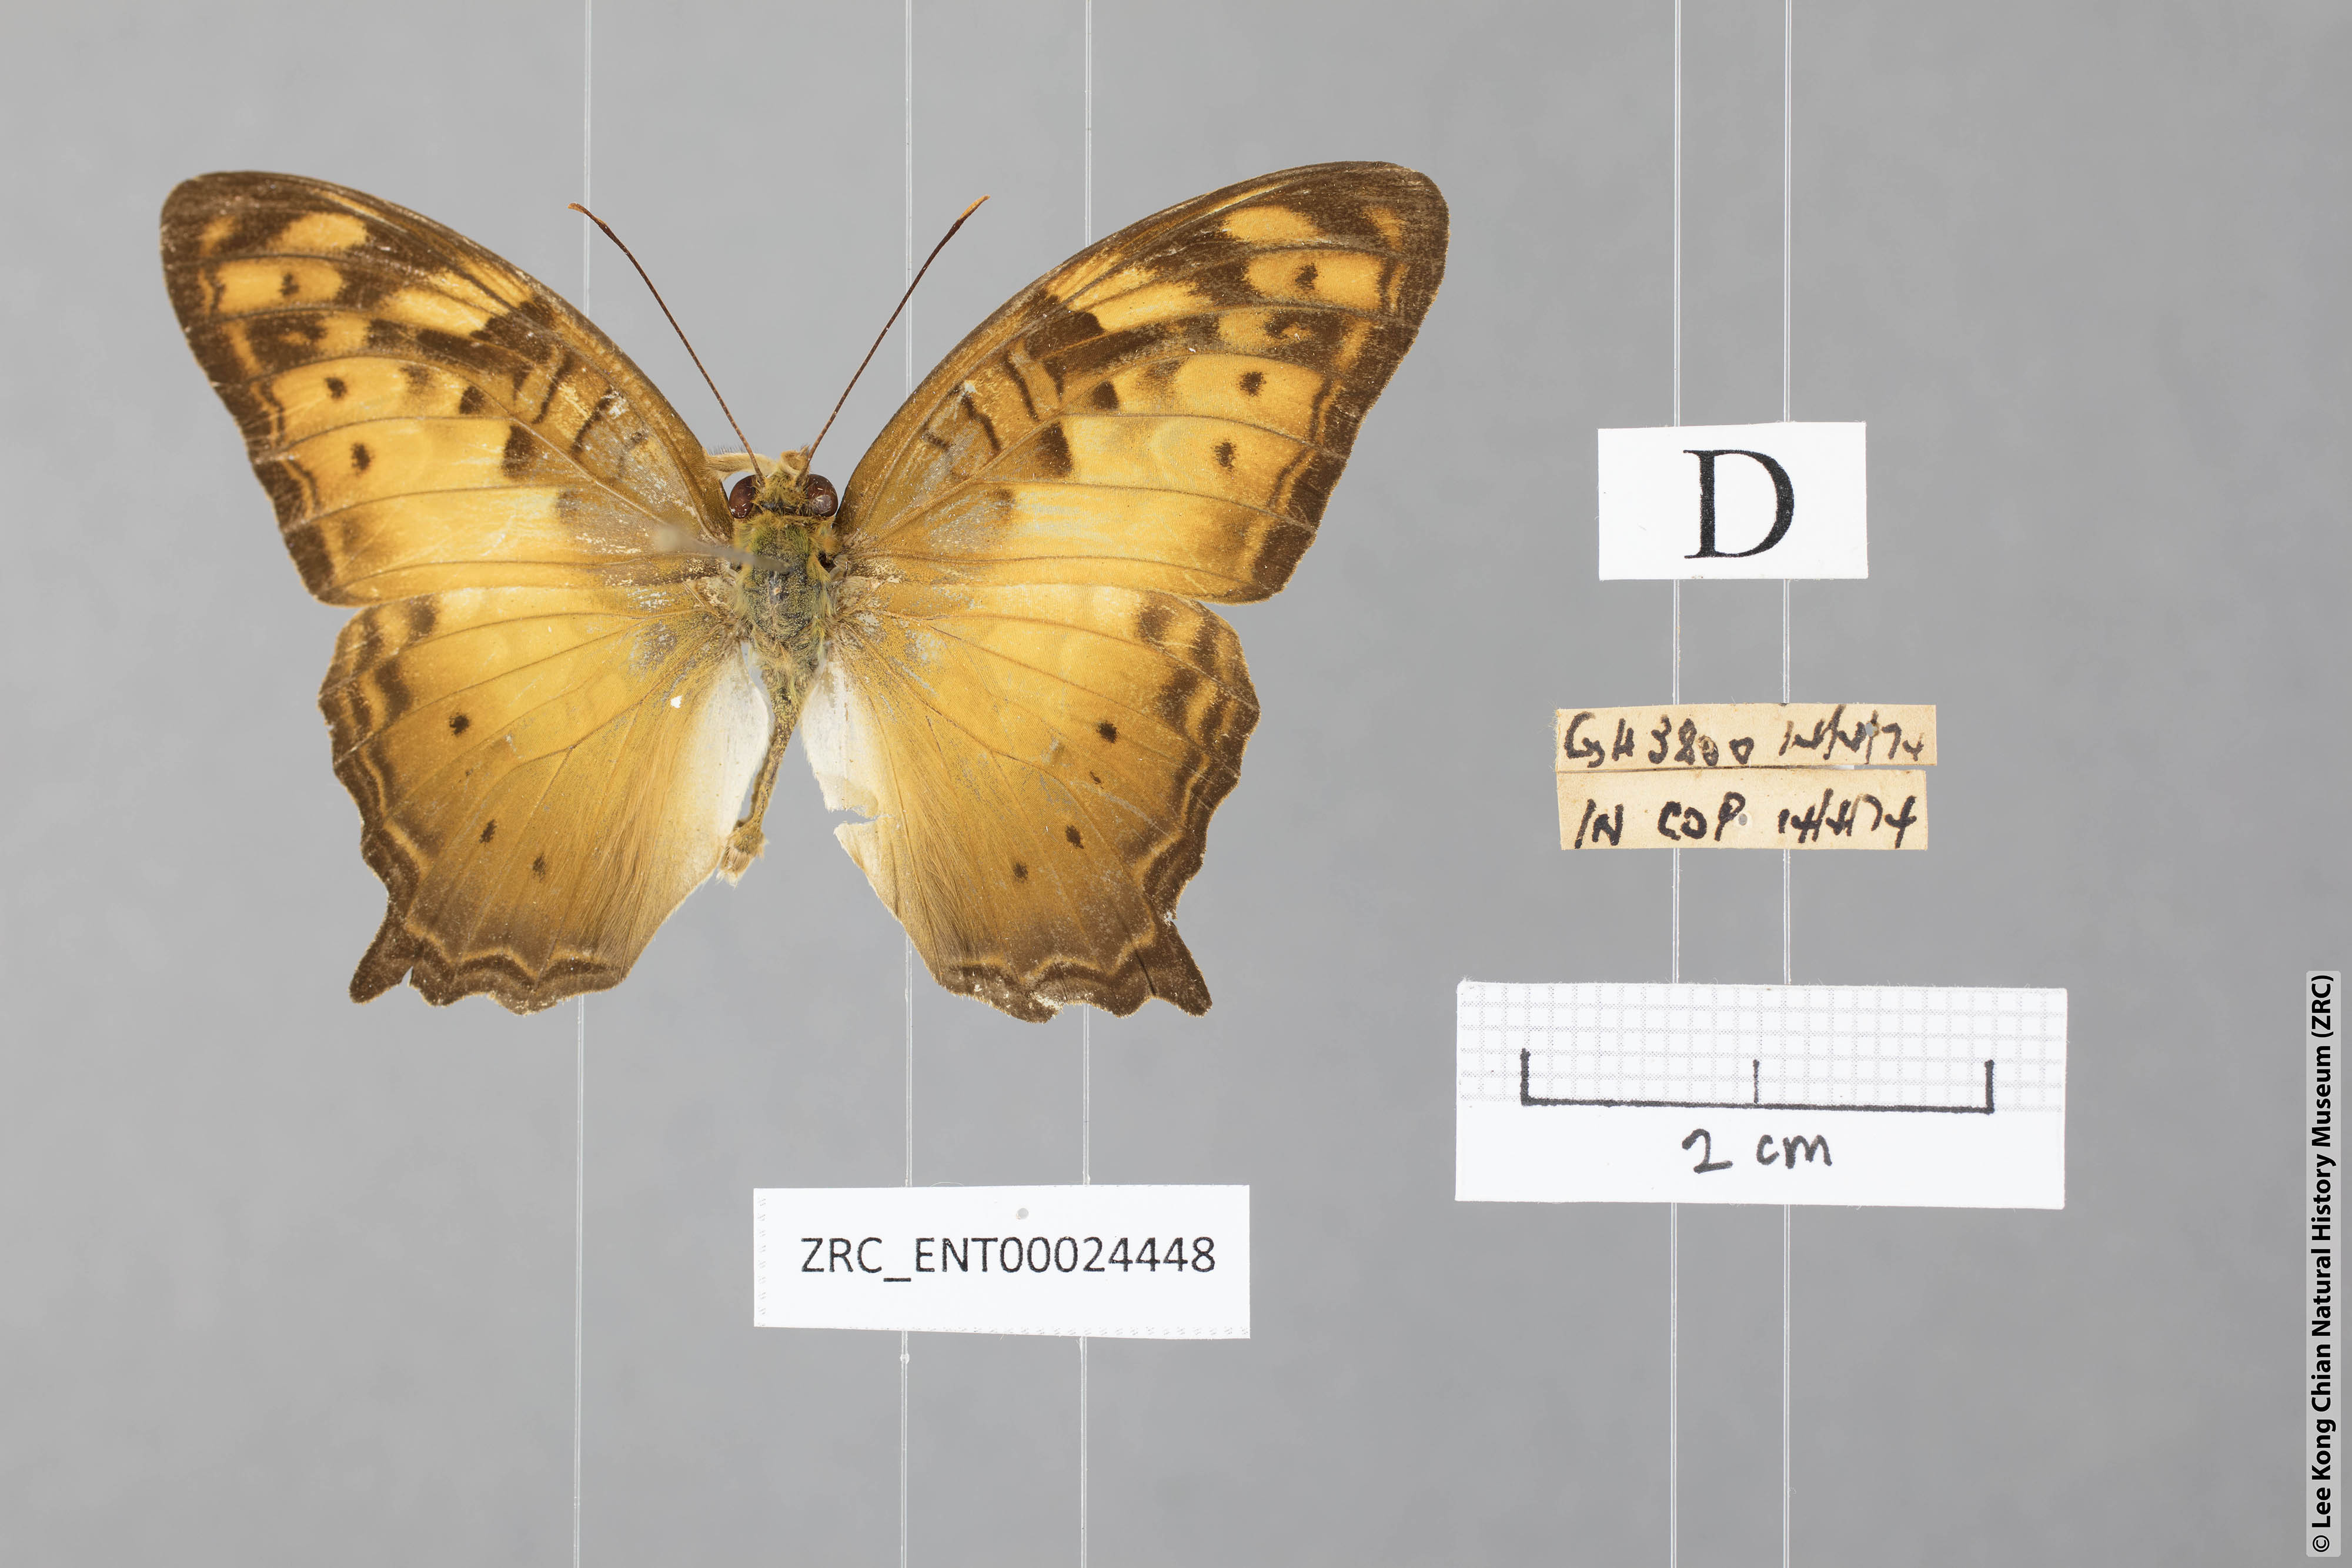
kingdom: Animalia
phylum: Arthropoda
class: Insecta
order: Lepidoptera
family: Nymphalidae
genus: Vagrans
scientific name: Vagrans egista
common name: Tailed rustic
